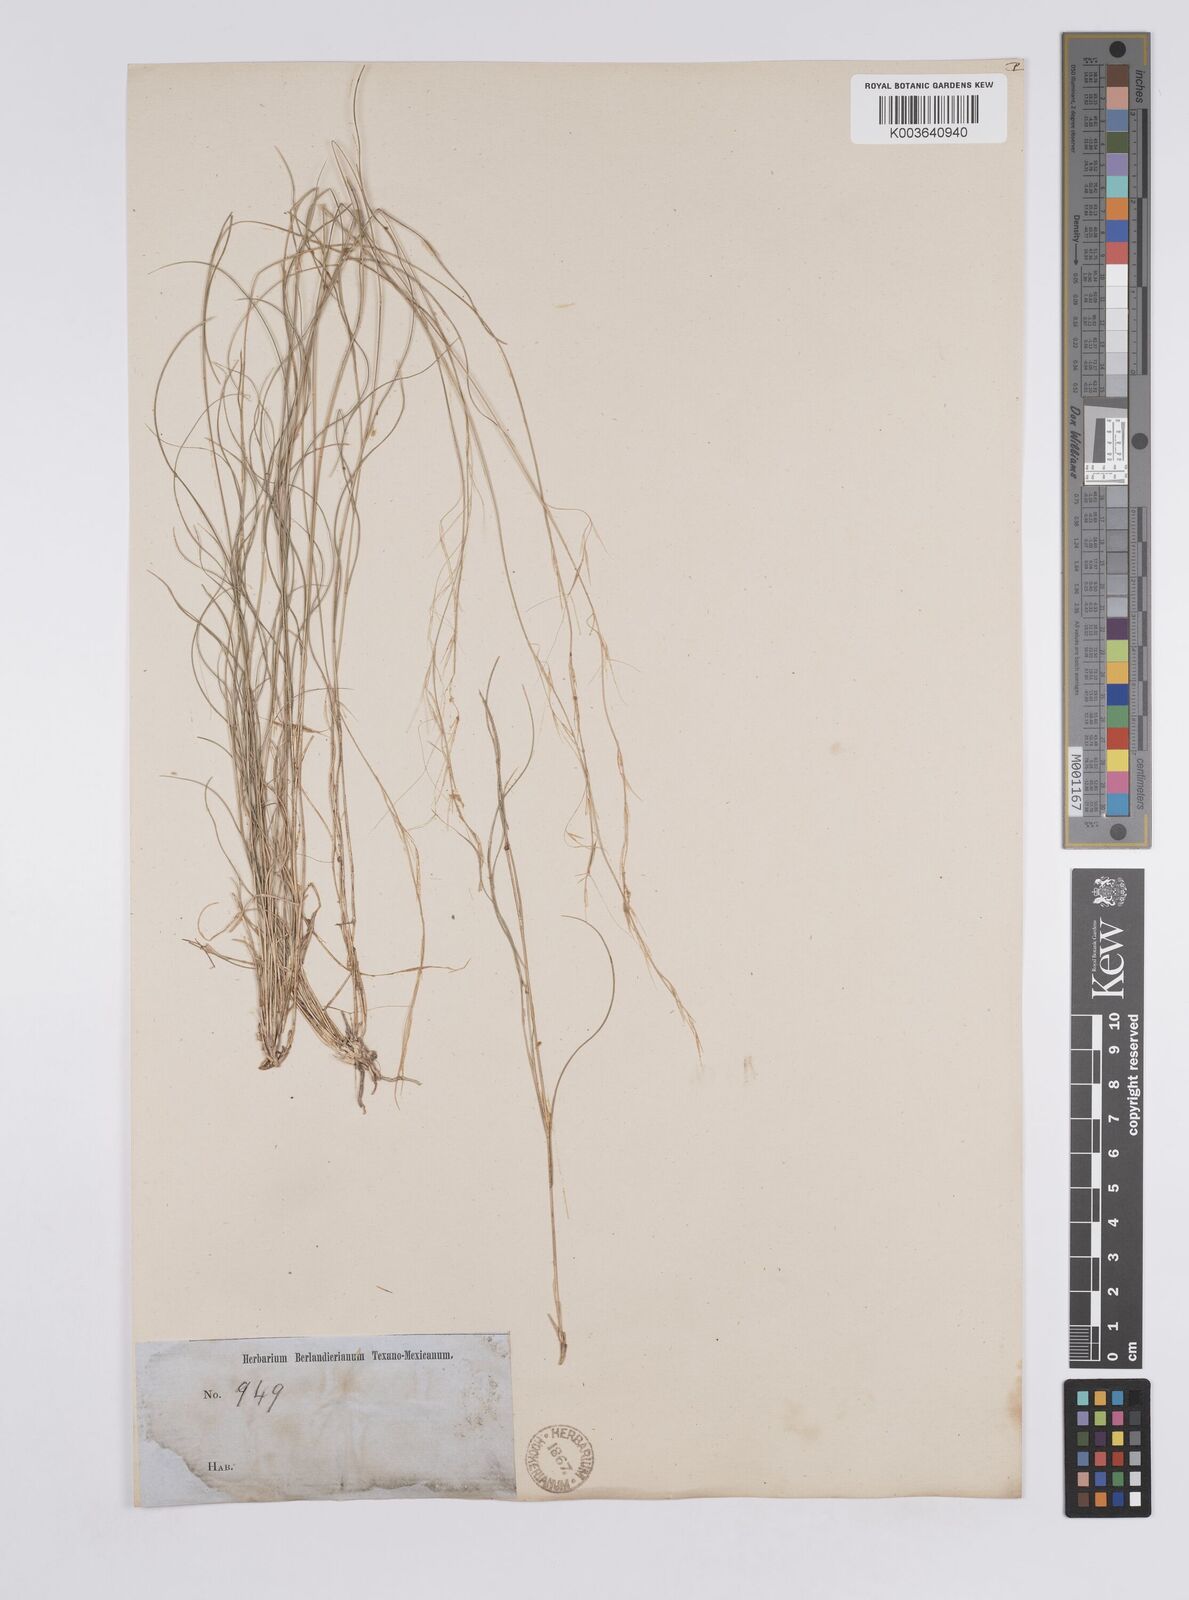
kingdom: Plantae
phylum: Tracheophyta
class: Liliopsida
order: Poales
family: Poaceae
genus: Aristida
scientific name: Aristida purpurea
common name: Purple threeawn
